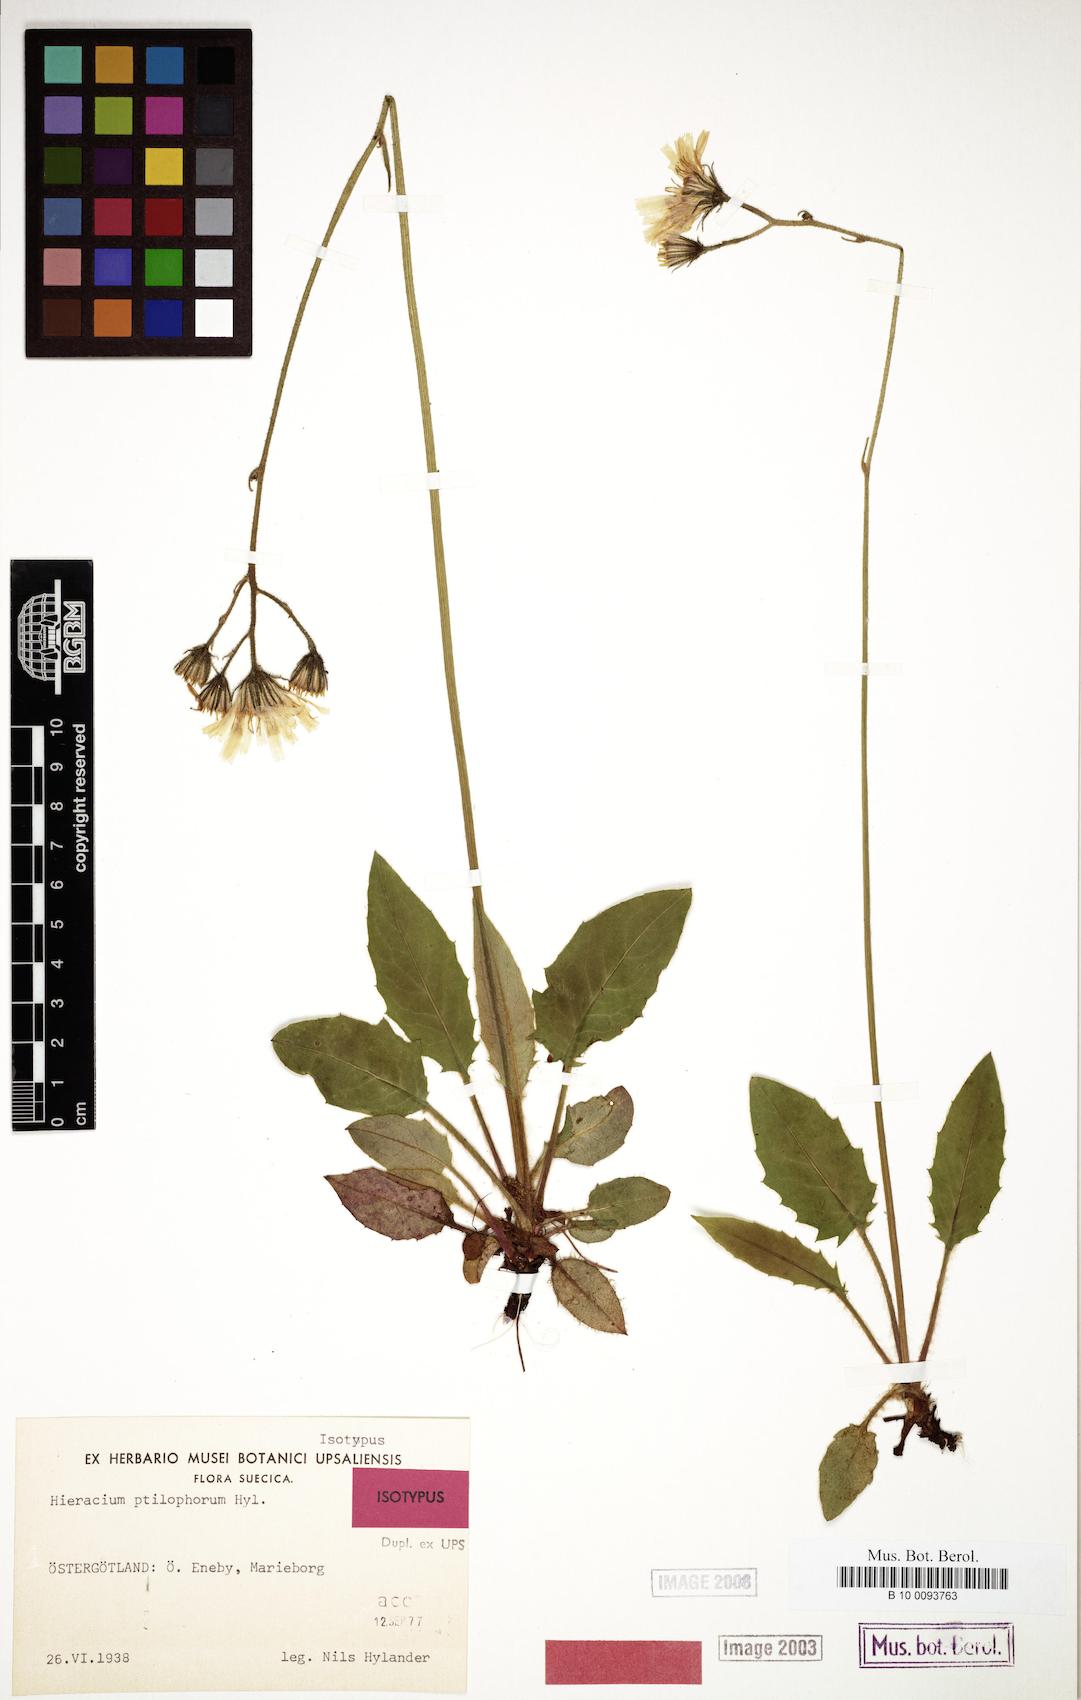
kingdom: Plantae
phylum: Tracheophyta
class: Magnoliopsida
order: Asterales
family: Asteraceae
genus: Hieracium
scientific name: Hieracium ptilophorum
